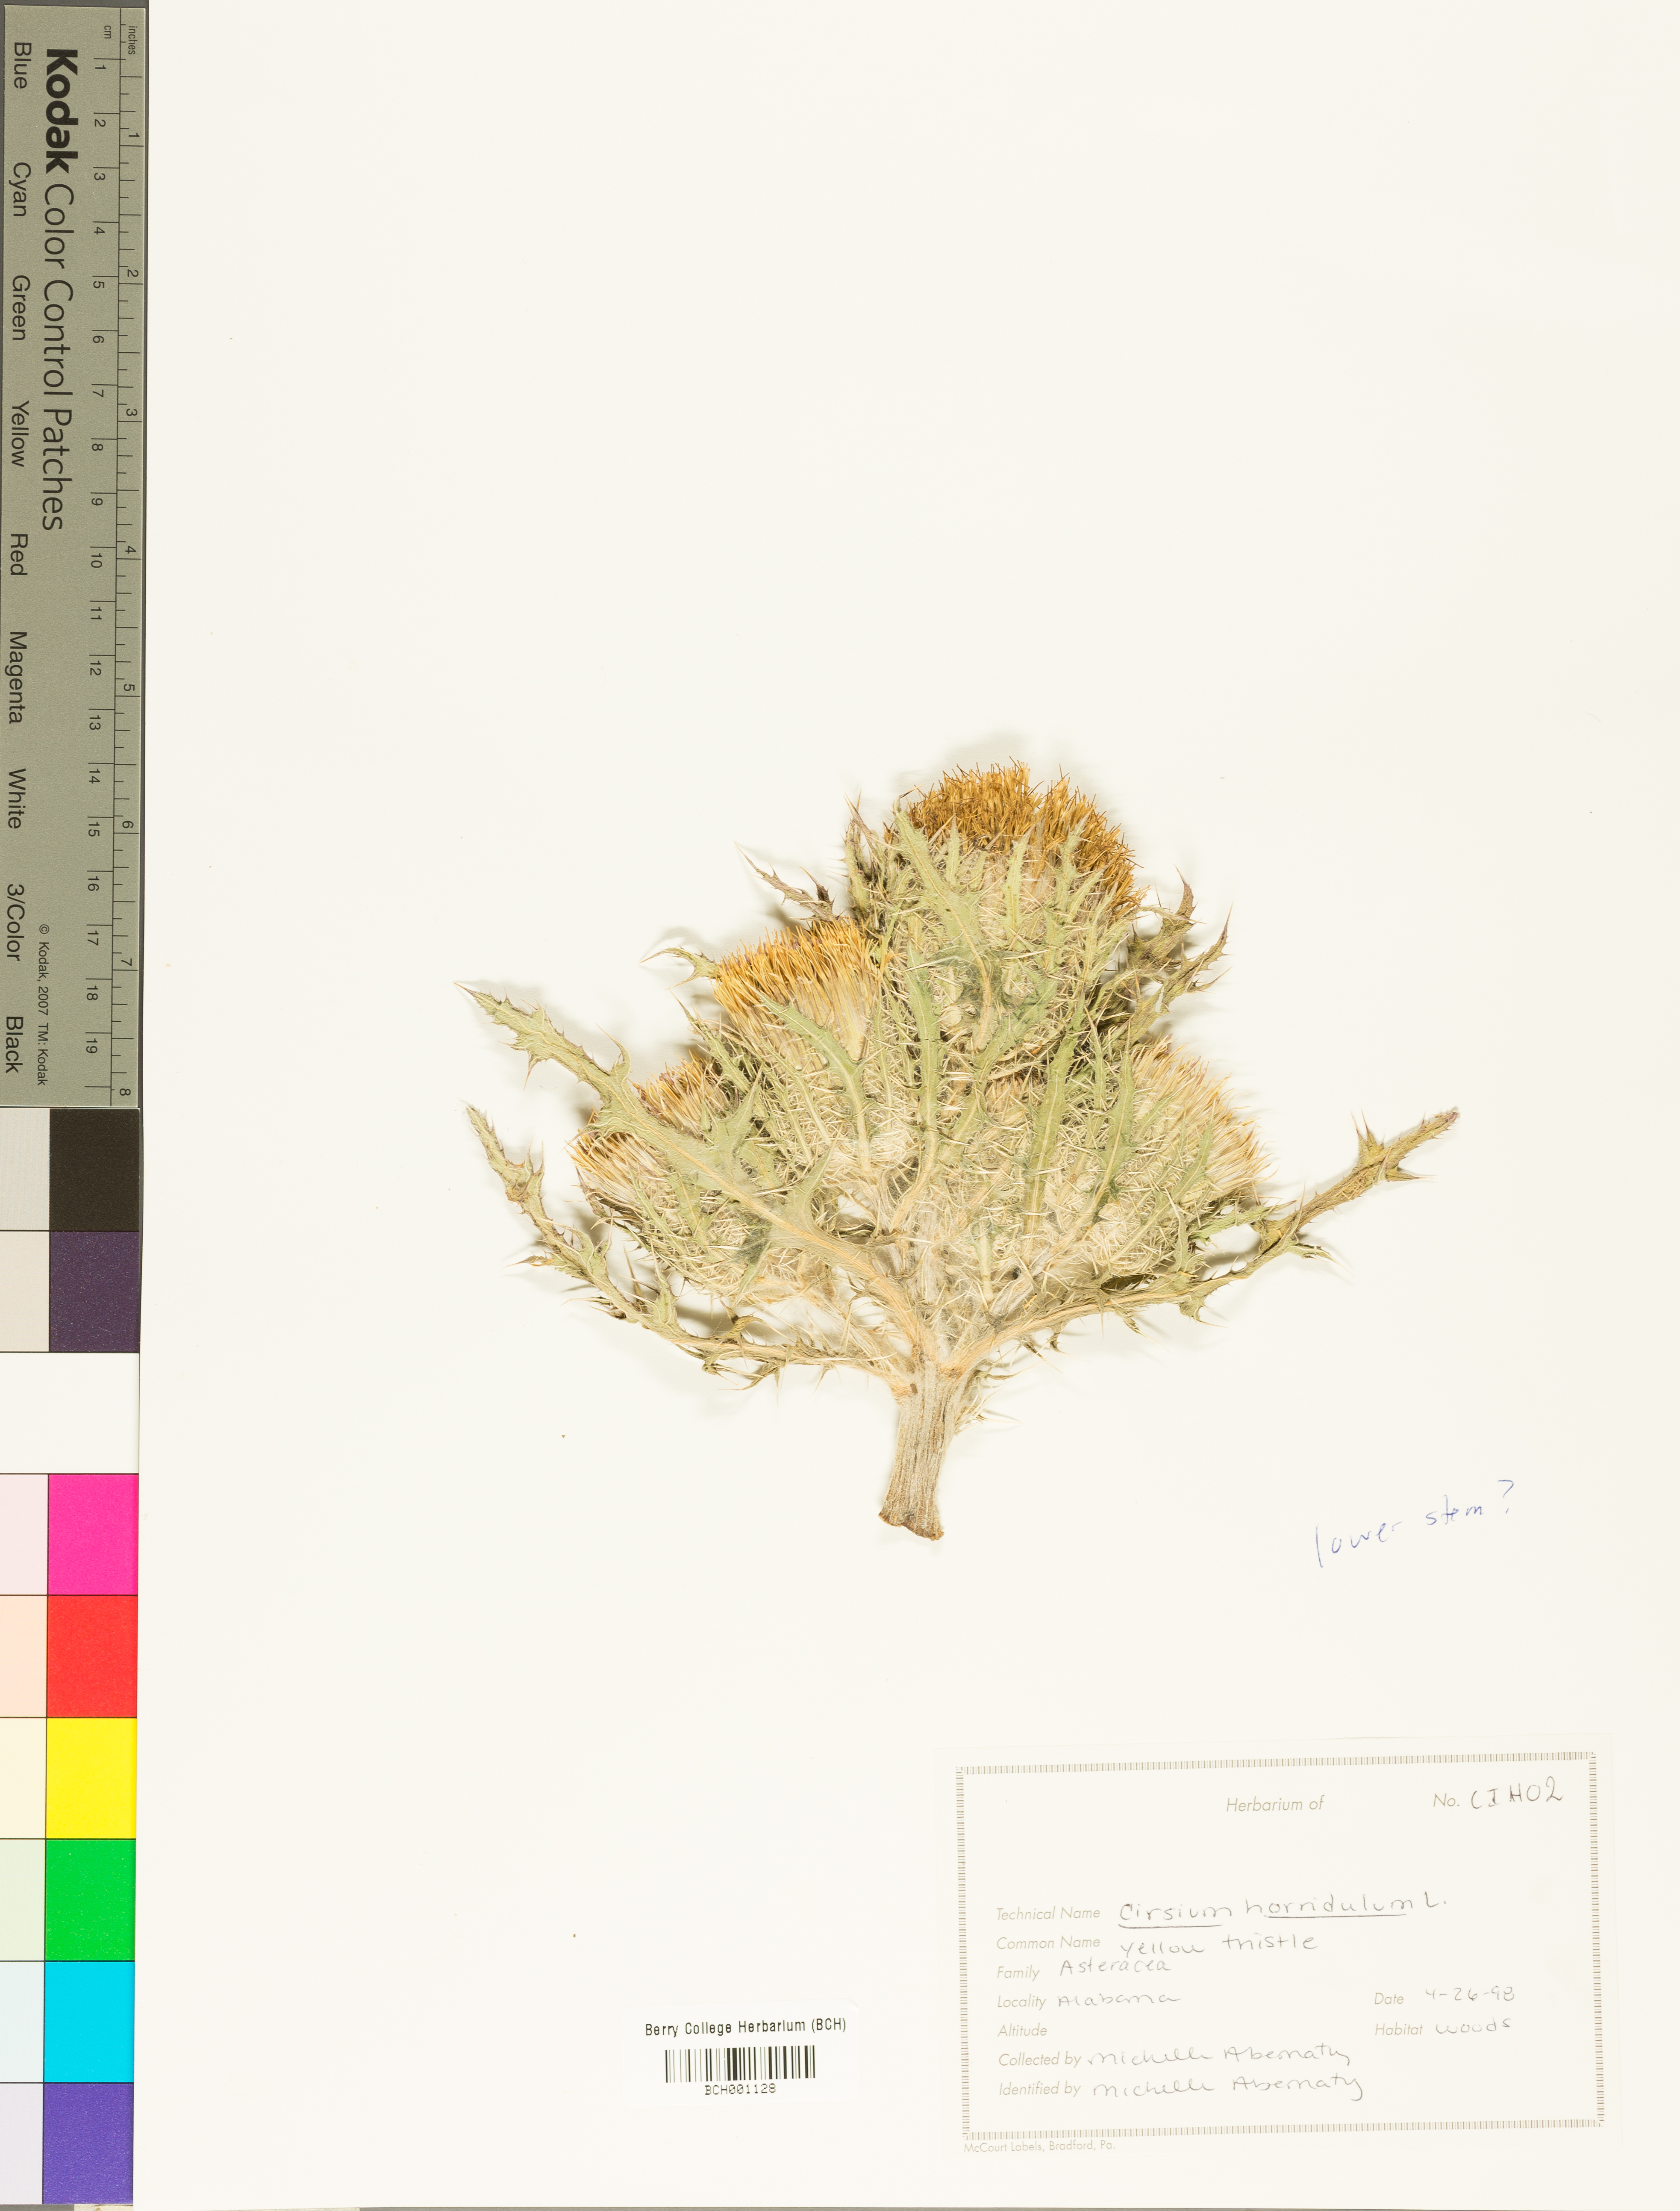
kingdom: Plantae
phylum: Tracheophyta
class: Magnoliopsida
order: Asterales
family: Asteraceae
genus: Cirsium
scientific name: Cirsium horridulum
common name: Bristly thistle
